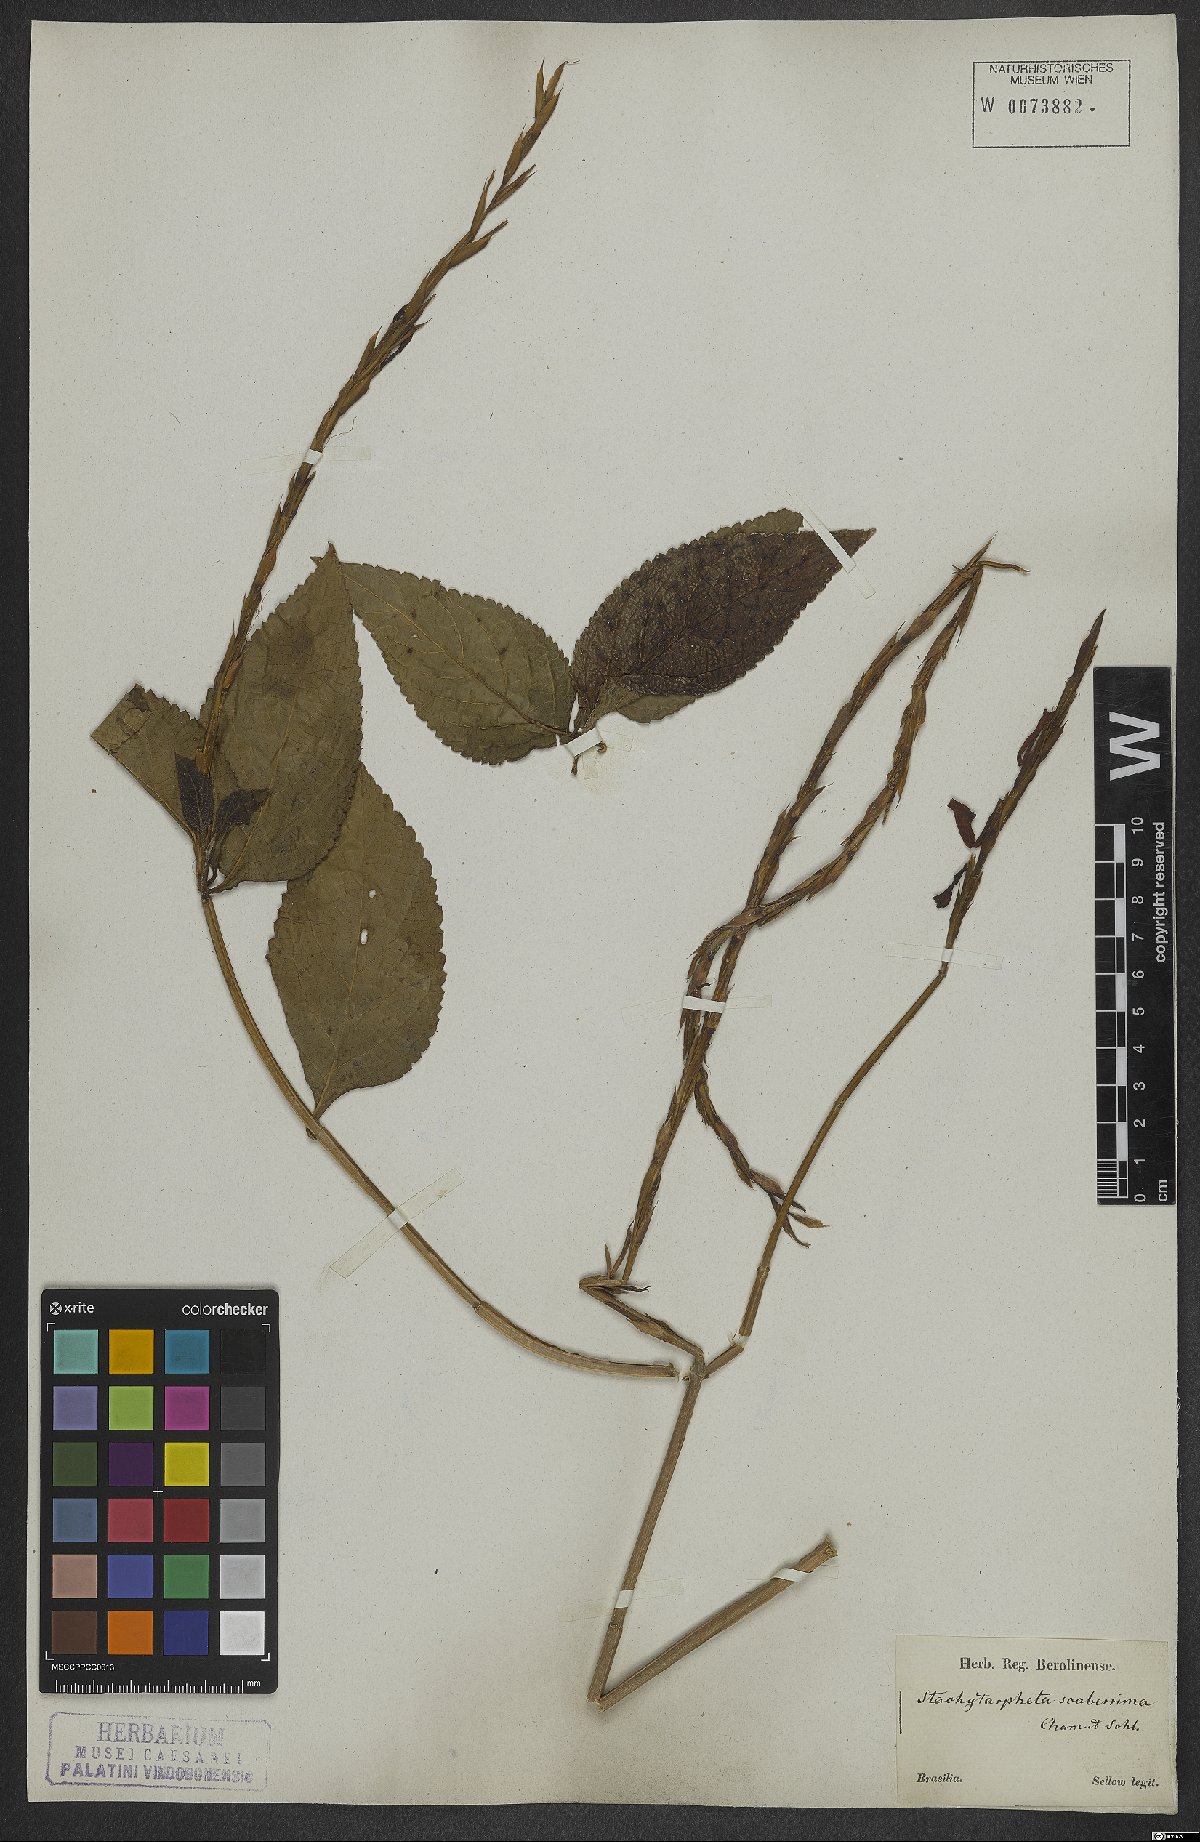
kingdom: Plantae
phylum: Tracheophyta
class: Magnoliopsida
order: Lamiales
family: Verbenaceae
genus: Stachytarpheta
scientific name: Stachytarpheta scaberrima
